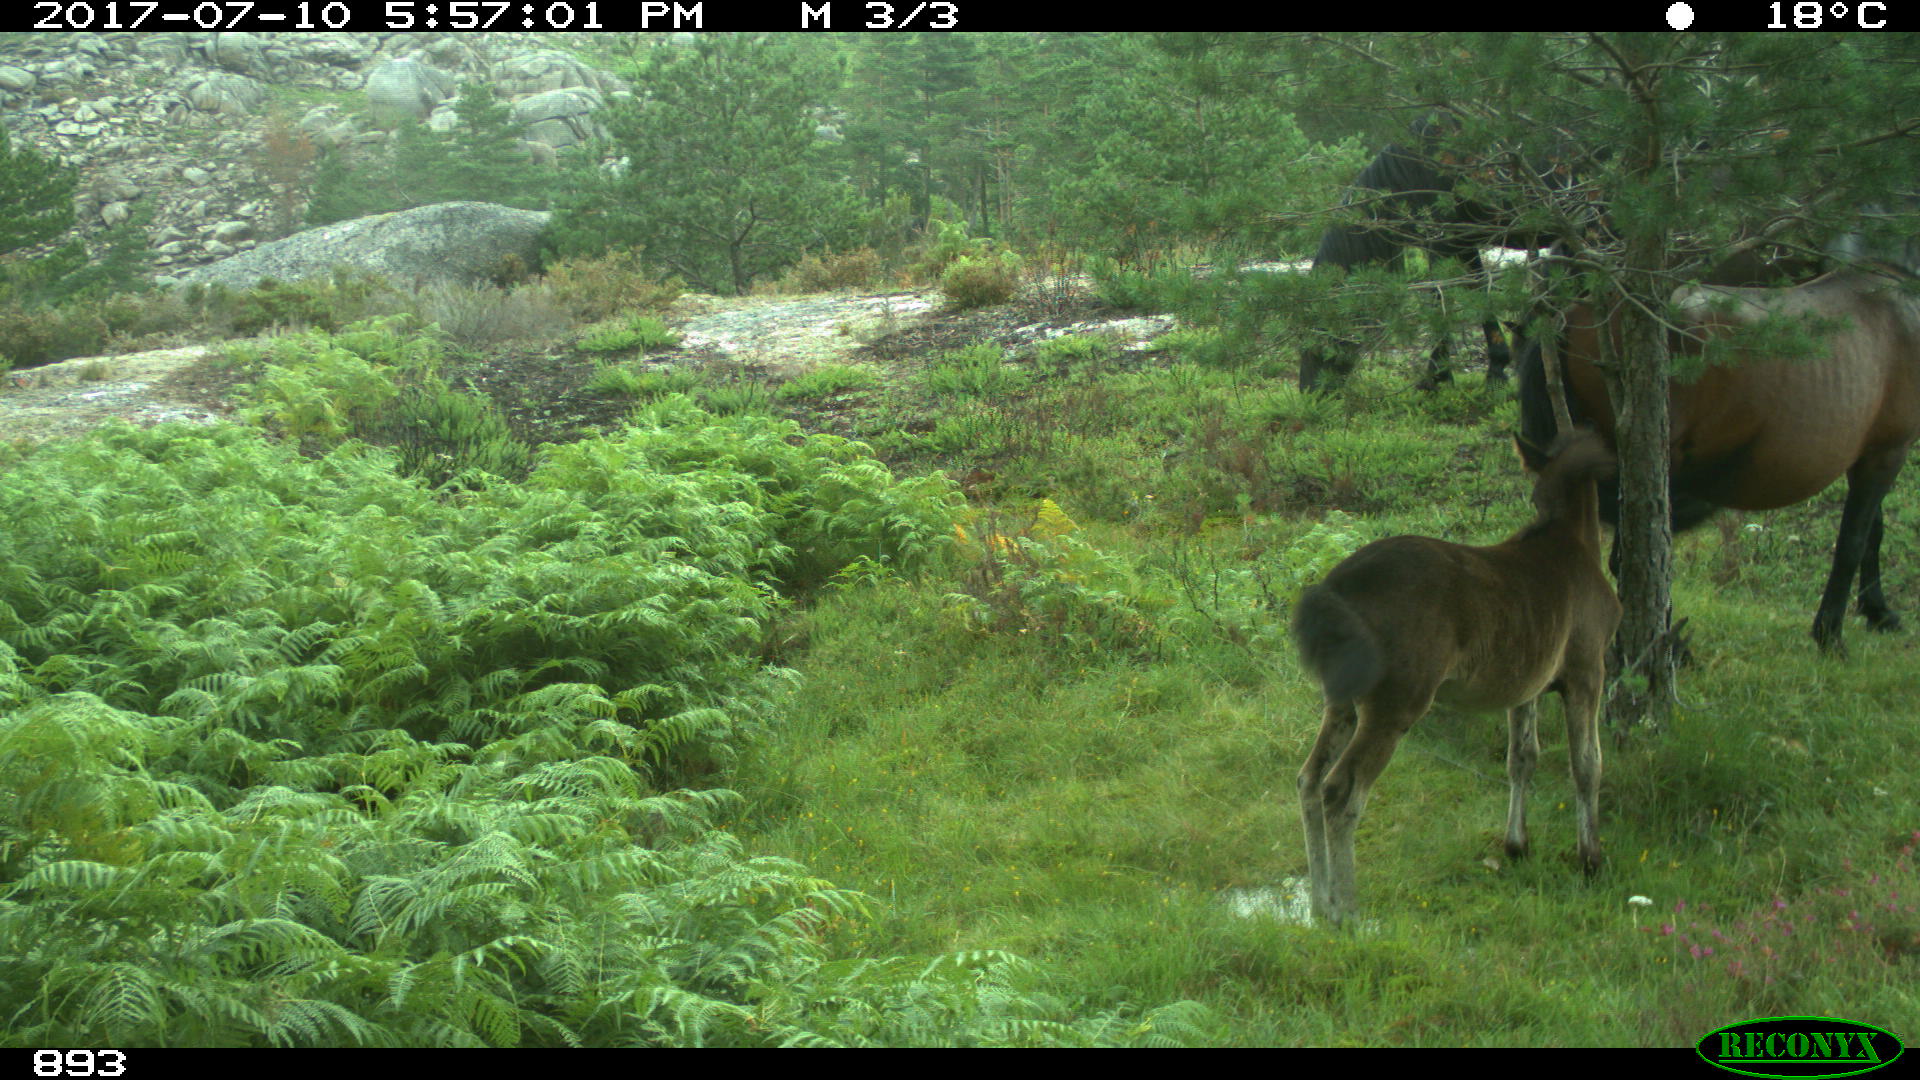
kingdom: Animalia
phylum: Chordata
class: Mammalia
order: Perissodactyla
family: Equidae
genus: Equus
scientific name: Equus caballus
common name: Horse
